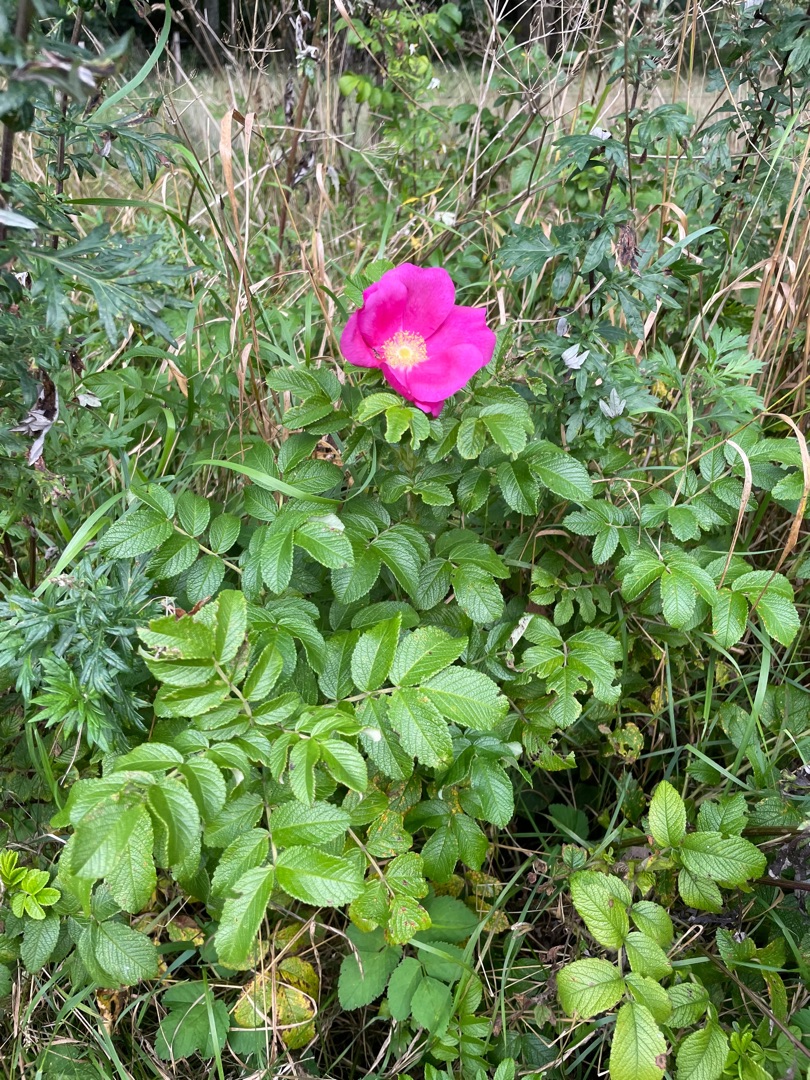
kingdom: Plantae
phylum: Tracheophyta
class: Magnoliopsida
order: Rosales
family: Rosaceae
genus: Rosa
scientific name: Rosa rugosa
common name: Rynket rose
